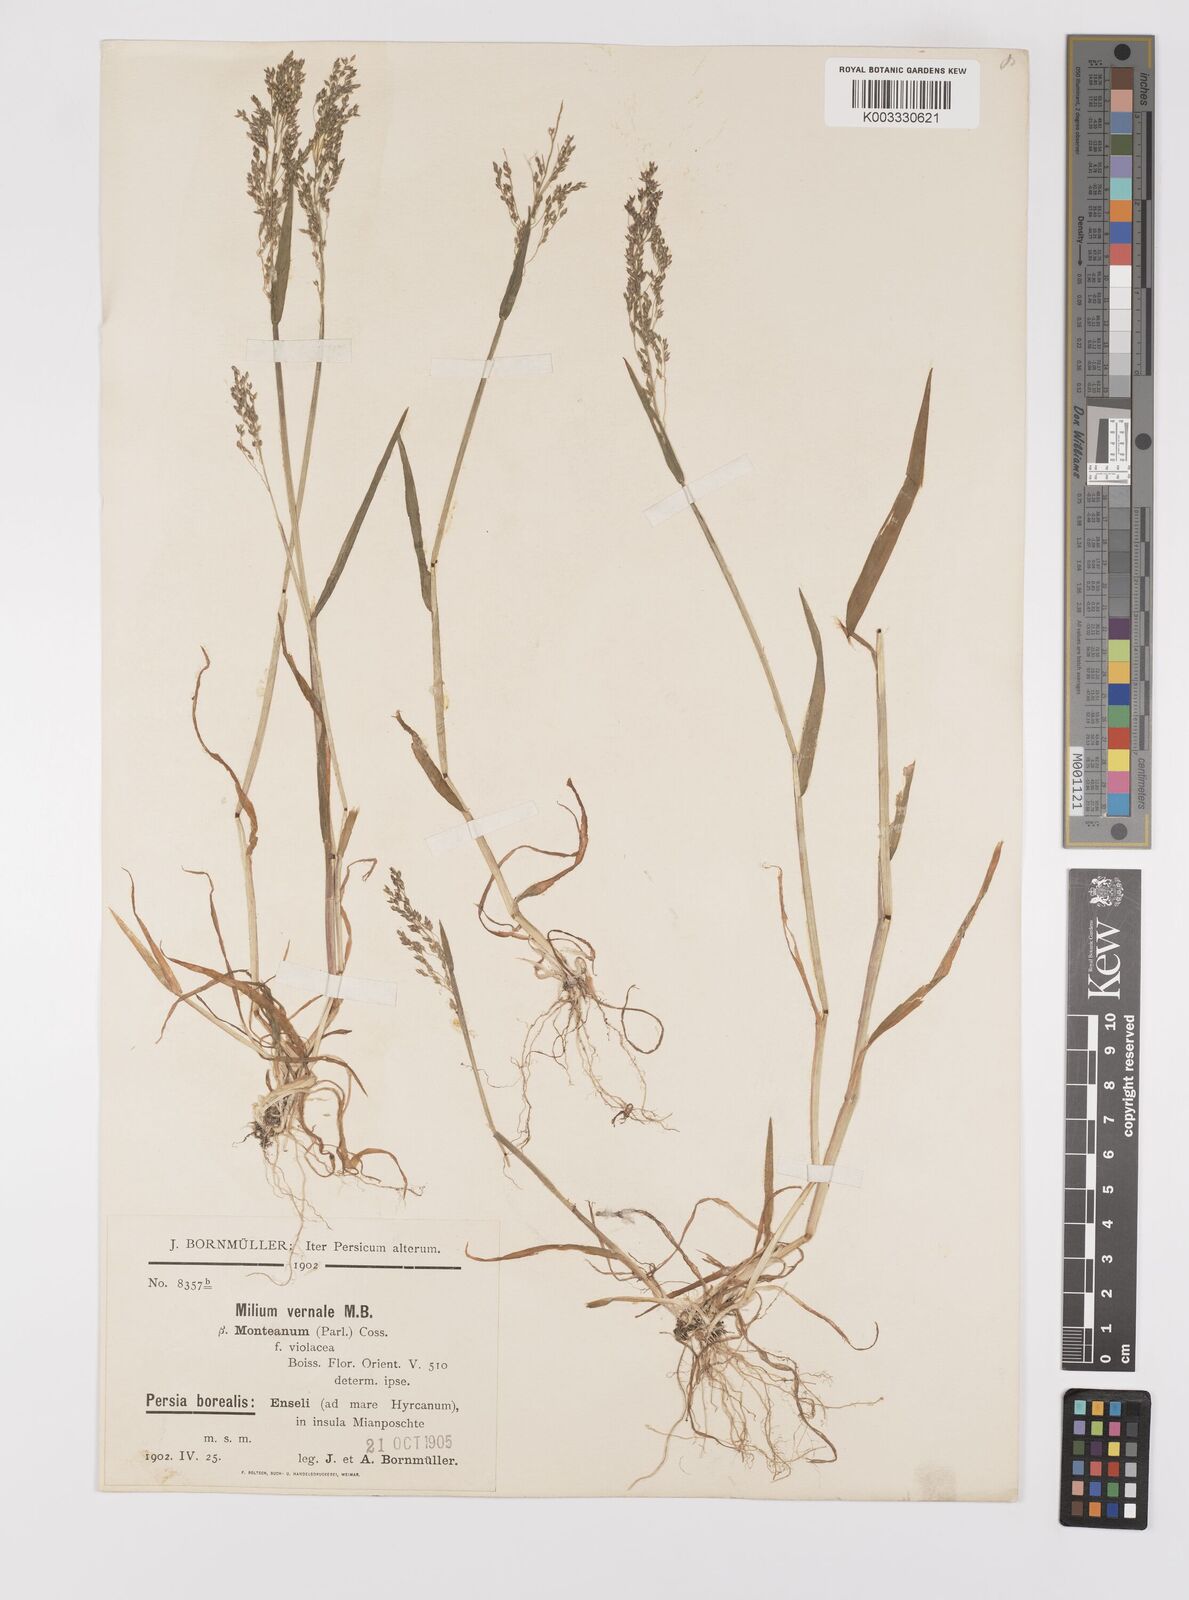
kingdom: Plantae
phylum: Tracheophyta
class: Liliopsida
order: Poales
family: Poaceae
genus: Milium
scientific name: Milium vernale
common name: Early millet
